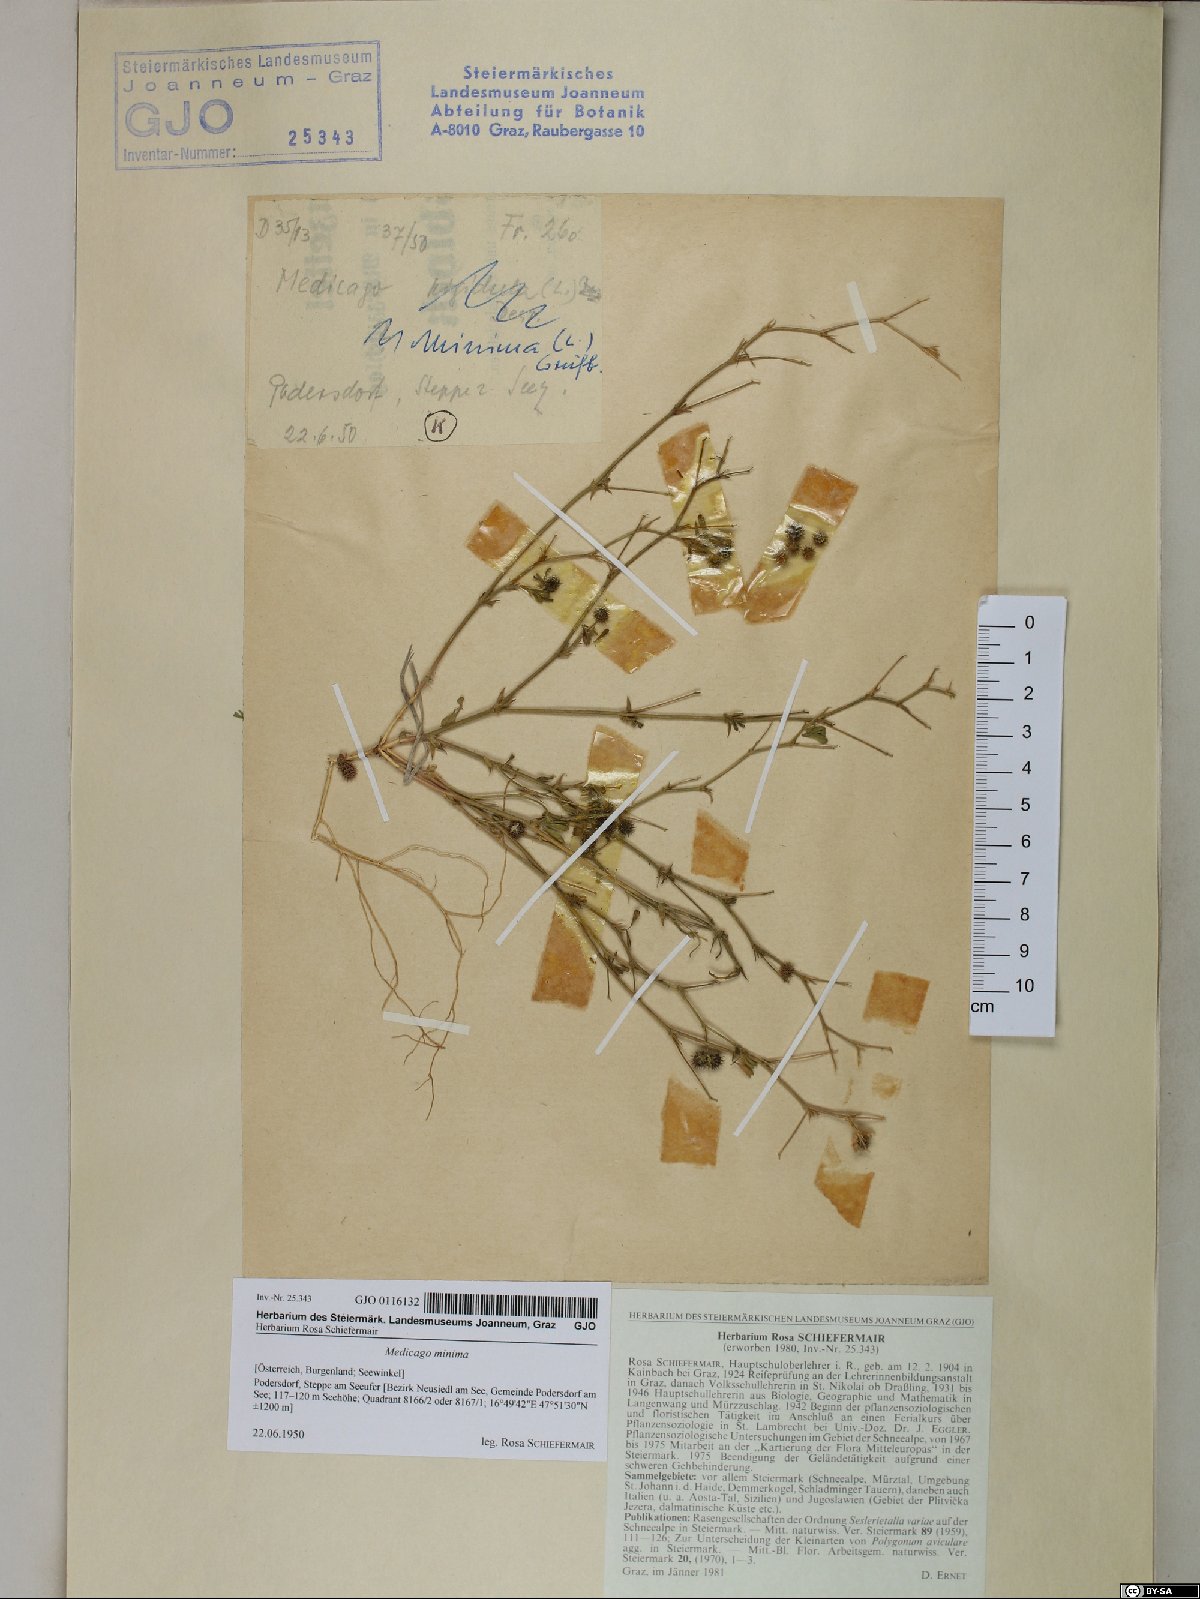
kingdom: Plantae
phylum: Tracheophyta
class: Magnoliopsida
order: Fabales
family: Fabaceae
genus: Medicago
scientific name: Medicago minima
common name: Little bur-clover
